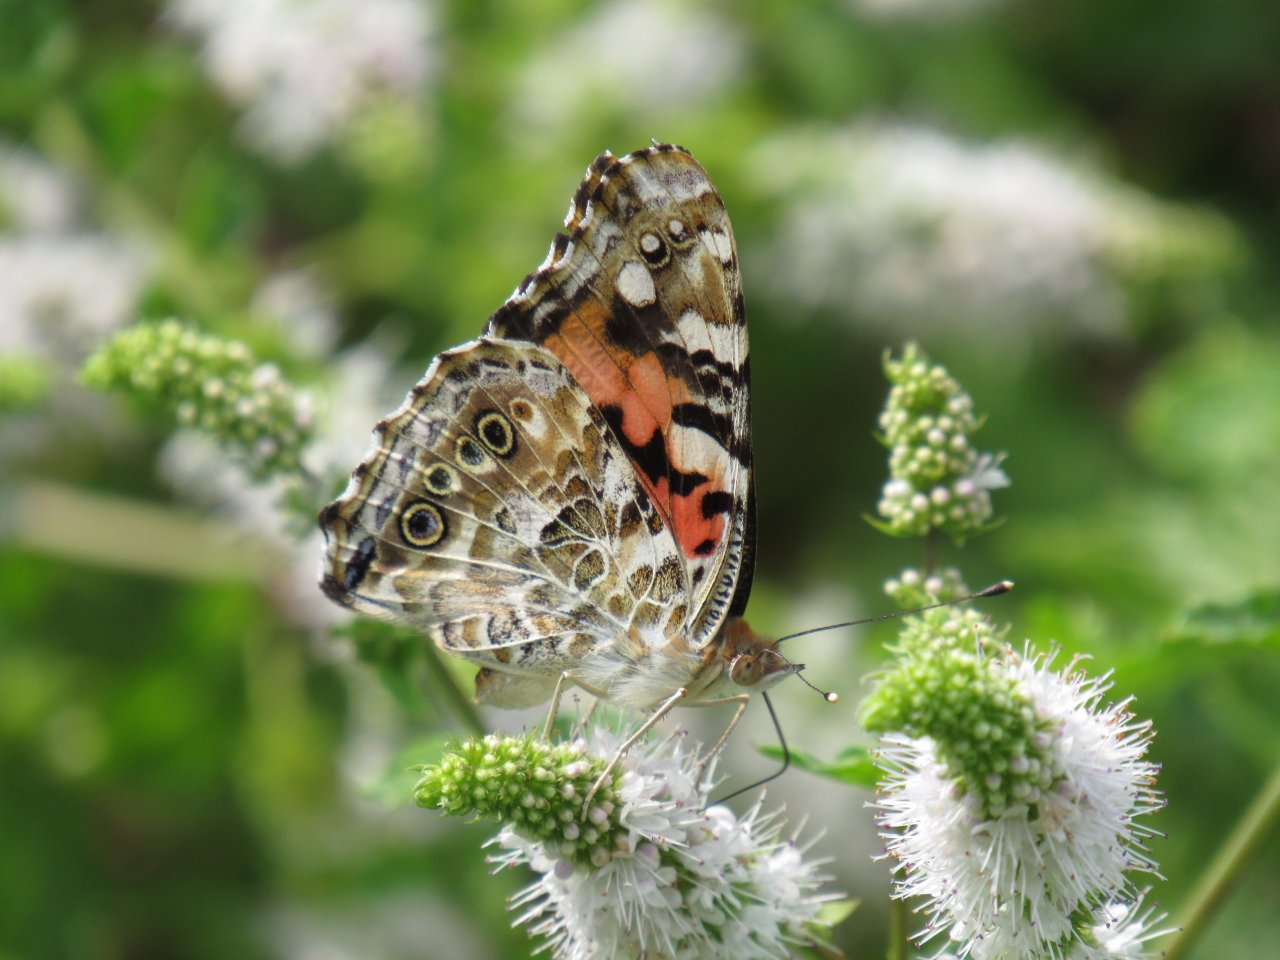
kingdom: Animalia
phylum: Arthropoda
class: Insecta
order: Lepidoptera
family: Nymphalidae
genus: Vanessa
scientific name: Vanessa cardui
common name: Painted Lady
